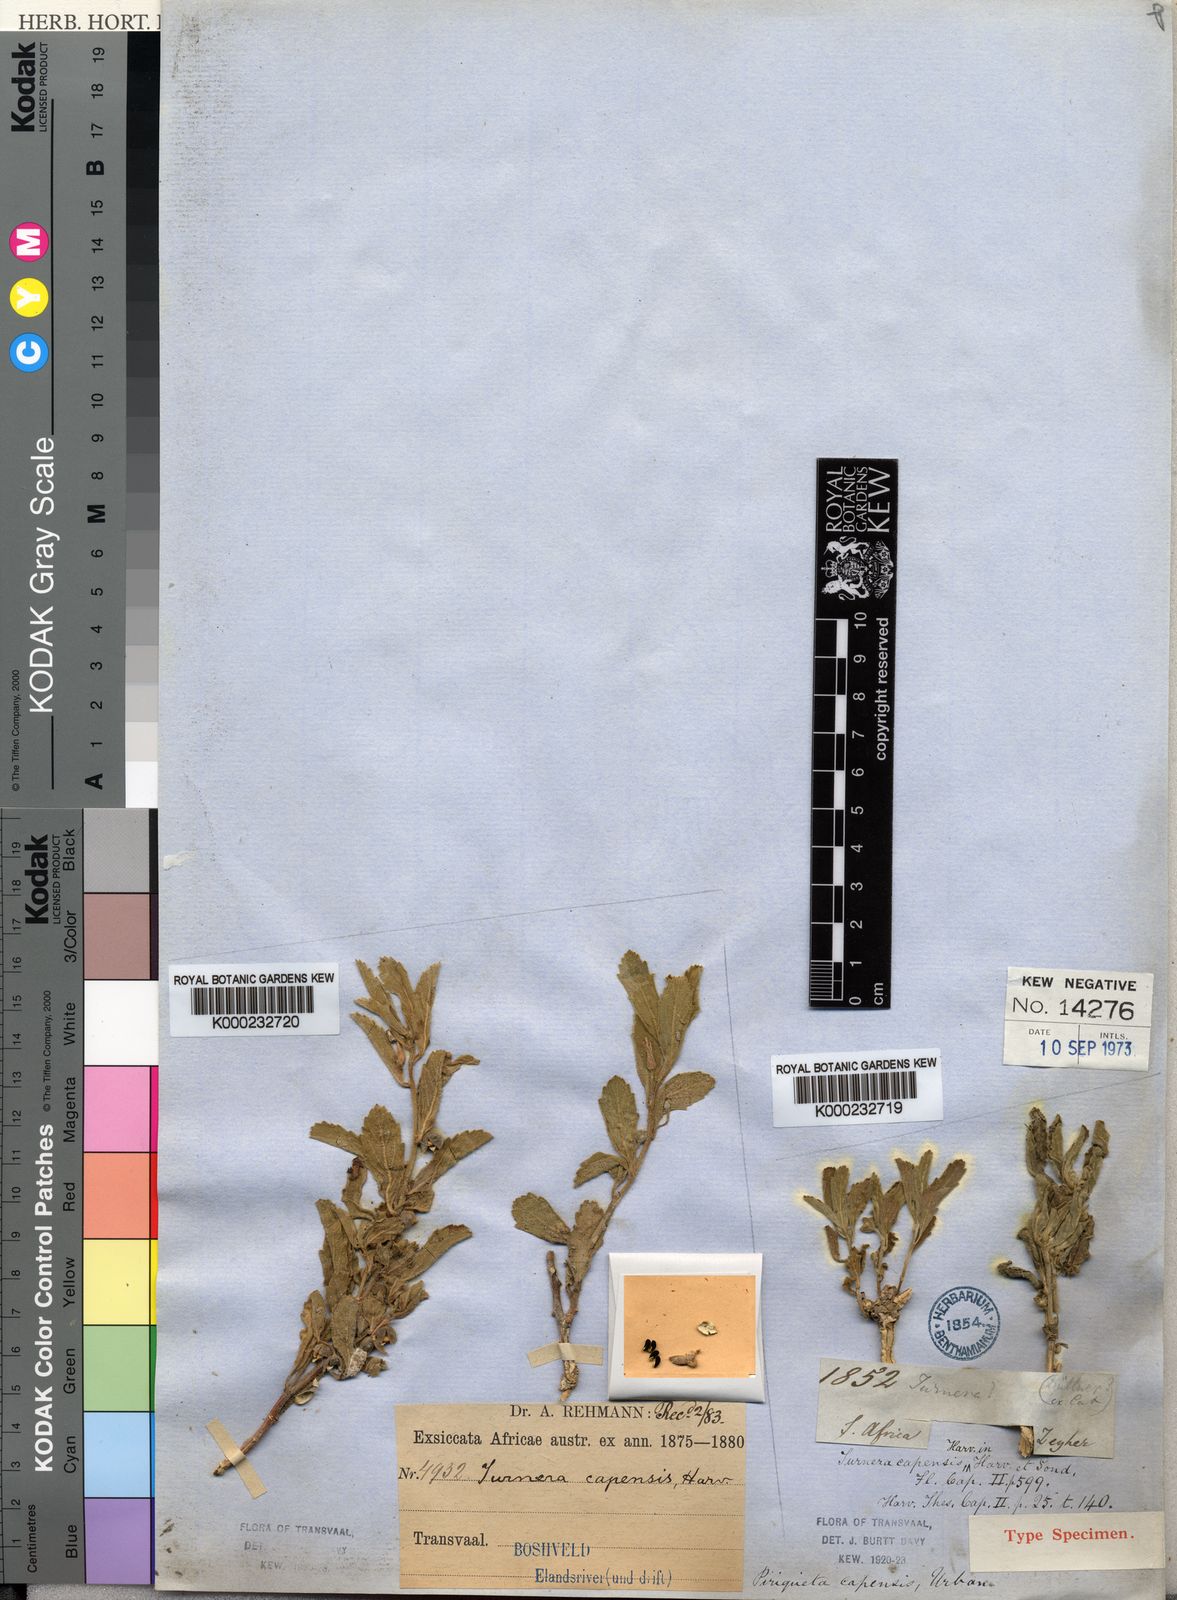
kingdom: Plantae
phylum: Tracheophyta
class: Magnoliopsida
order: Malpighiales
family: Turneraceae
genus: Afroqueta
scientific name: Afroqueta capensis
